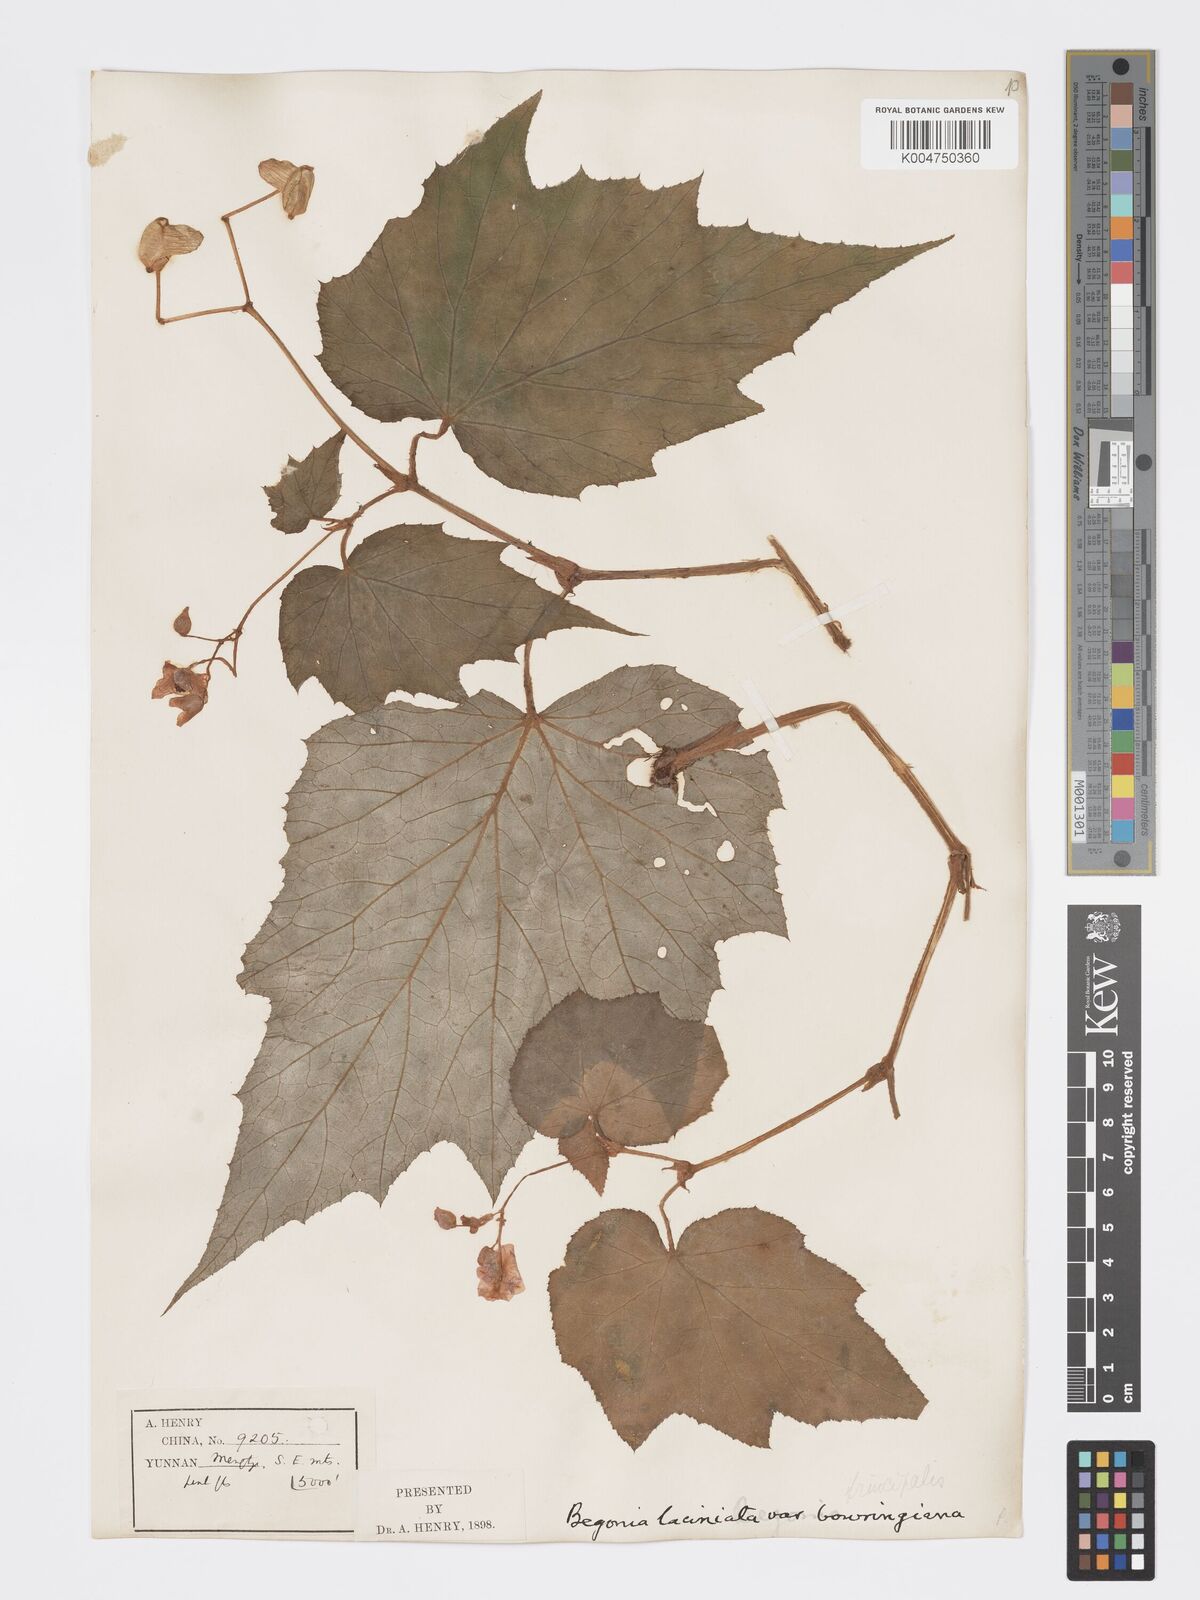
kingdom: Plantae
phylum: Tracheophyta
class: Magnoliopsida
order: Cucurbitales
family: Begoniaceae
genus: Begonia
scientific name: Begonia palmata
